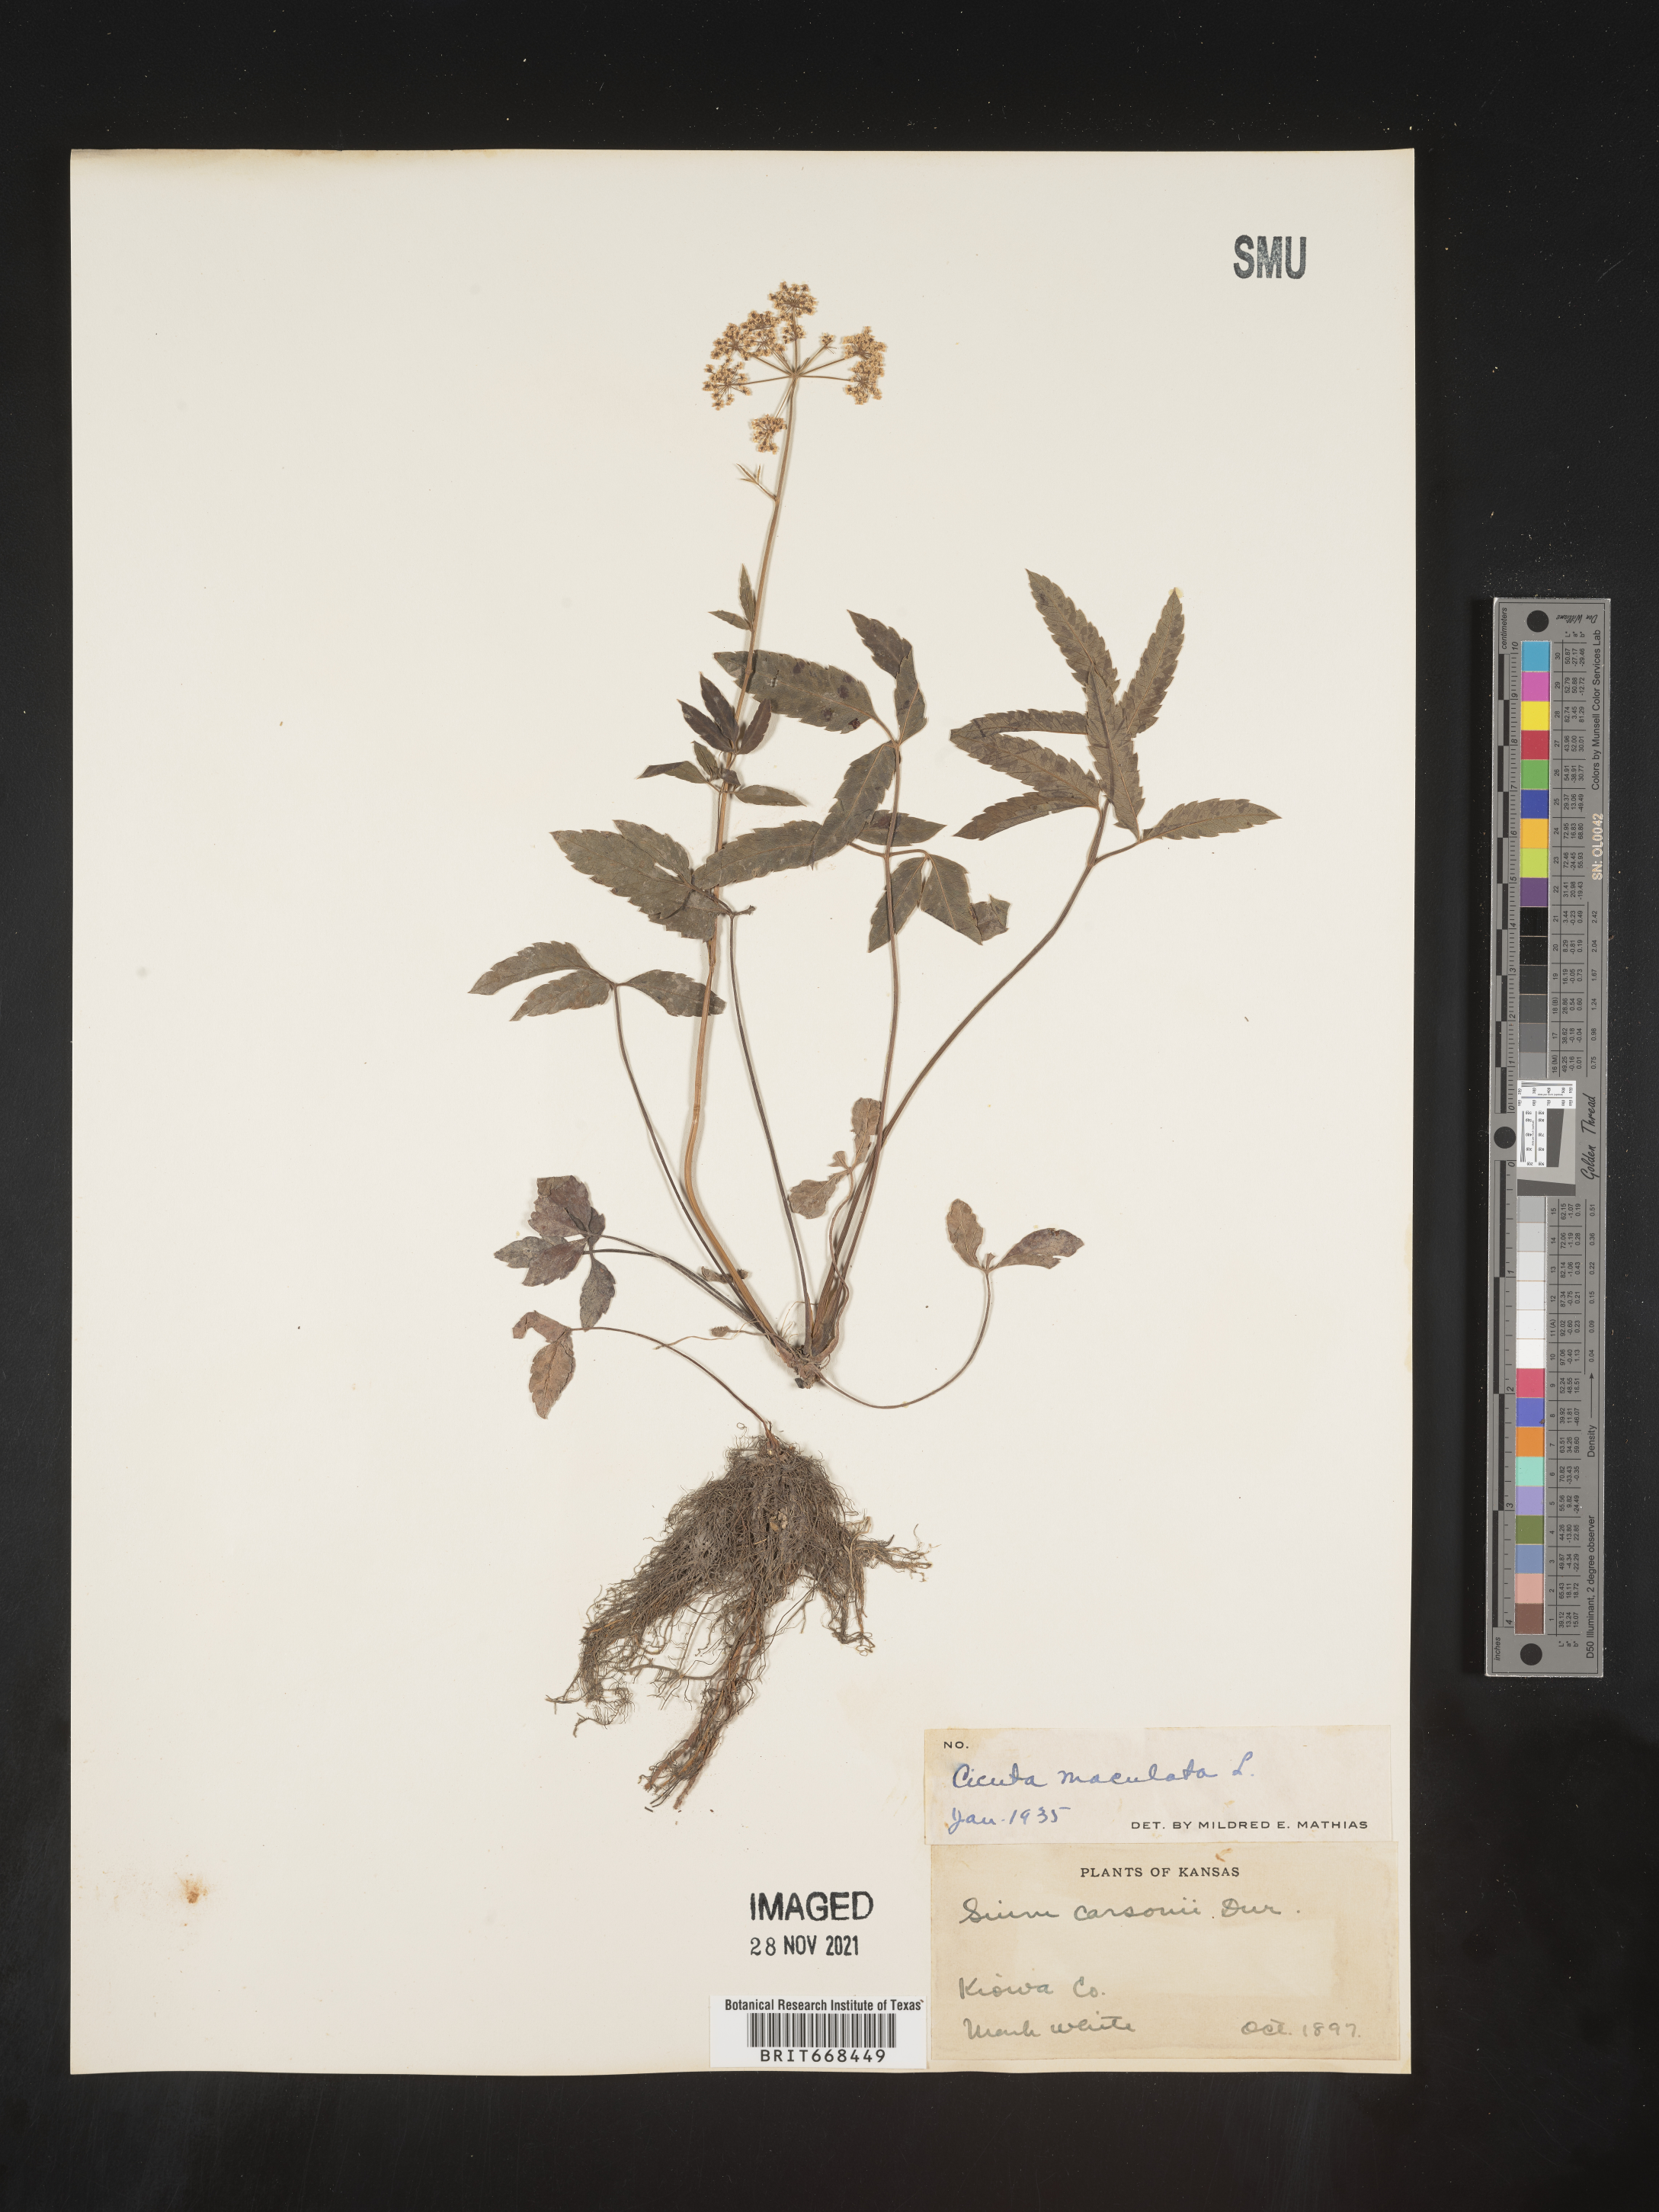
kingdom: Plantae
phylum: Tracheophyta
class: Magnoliopsida
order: Apiales
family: Apiaceae
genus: Cicuta
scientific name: Cicuta maculata
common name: Spotted cowbane
